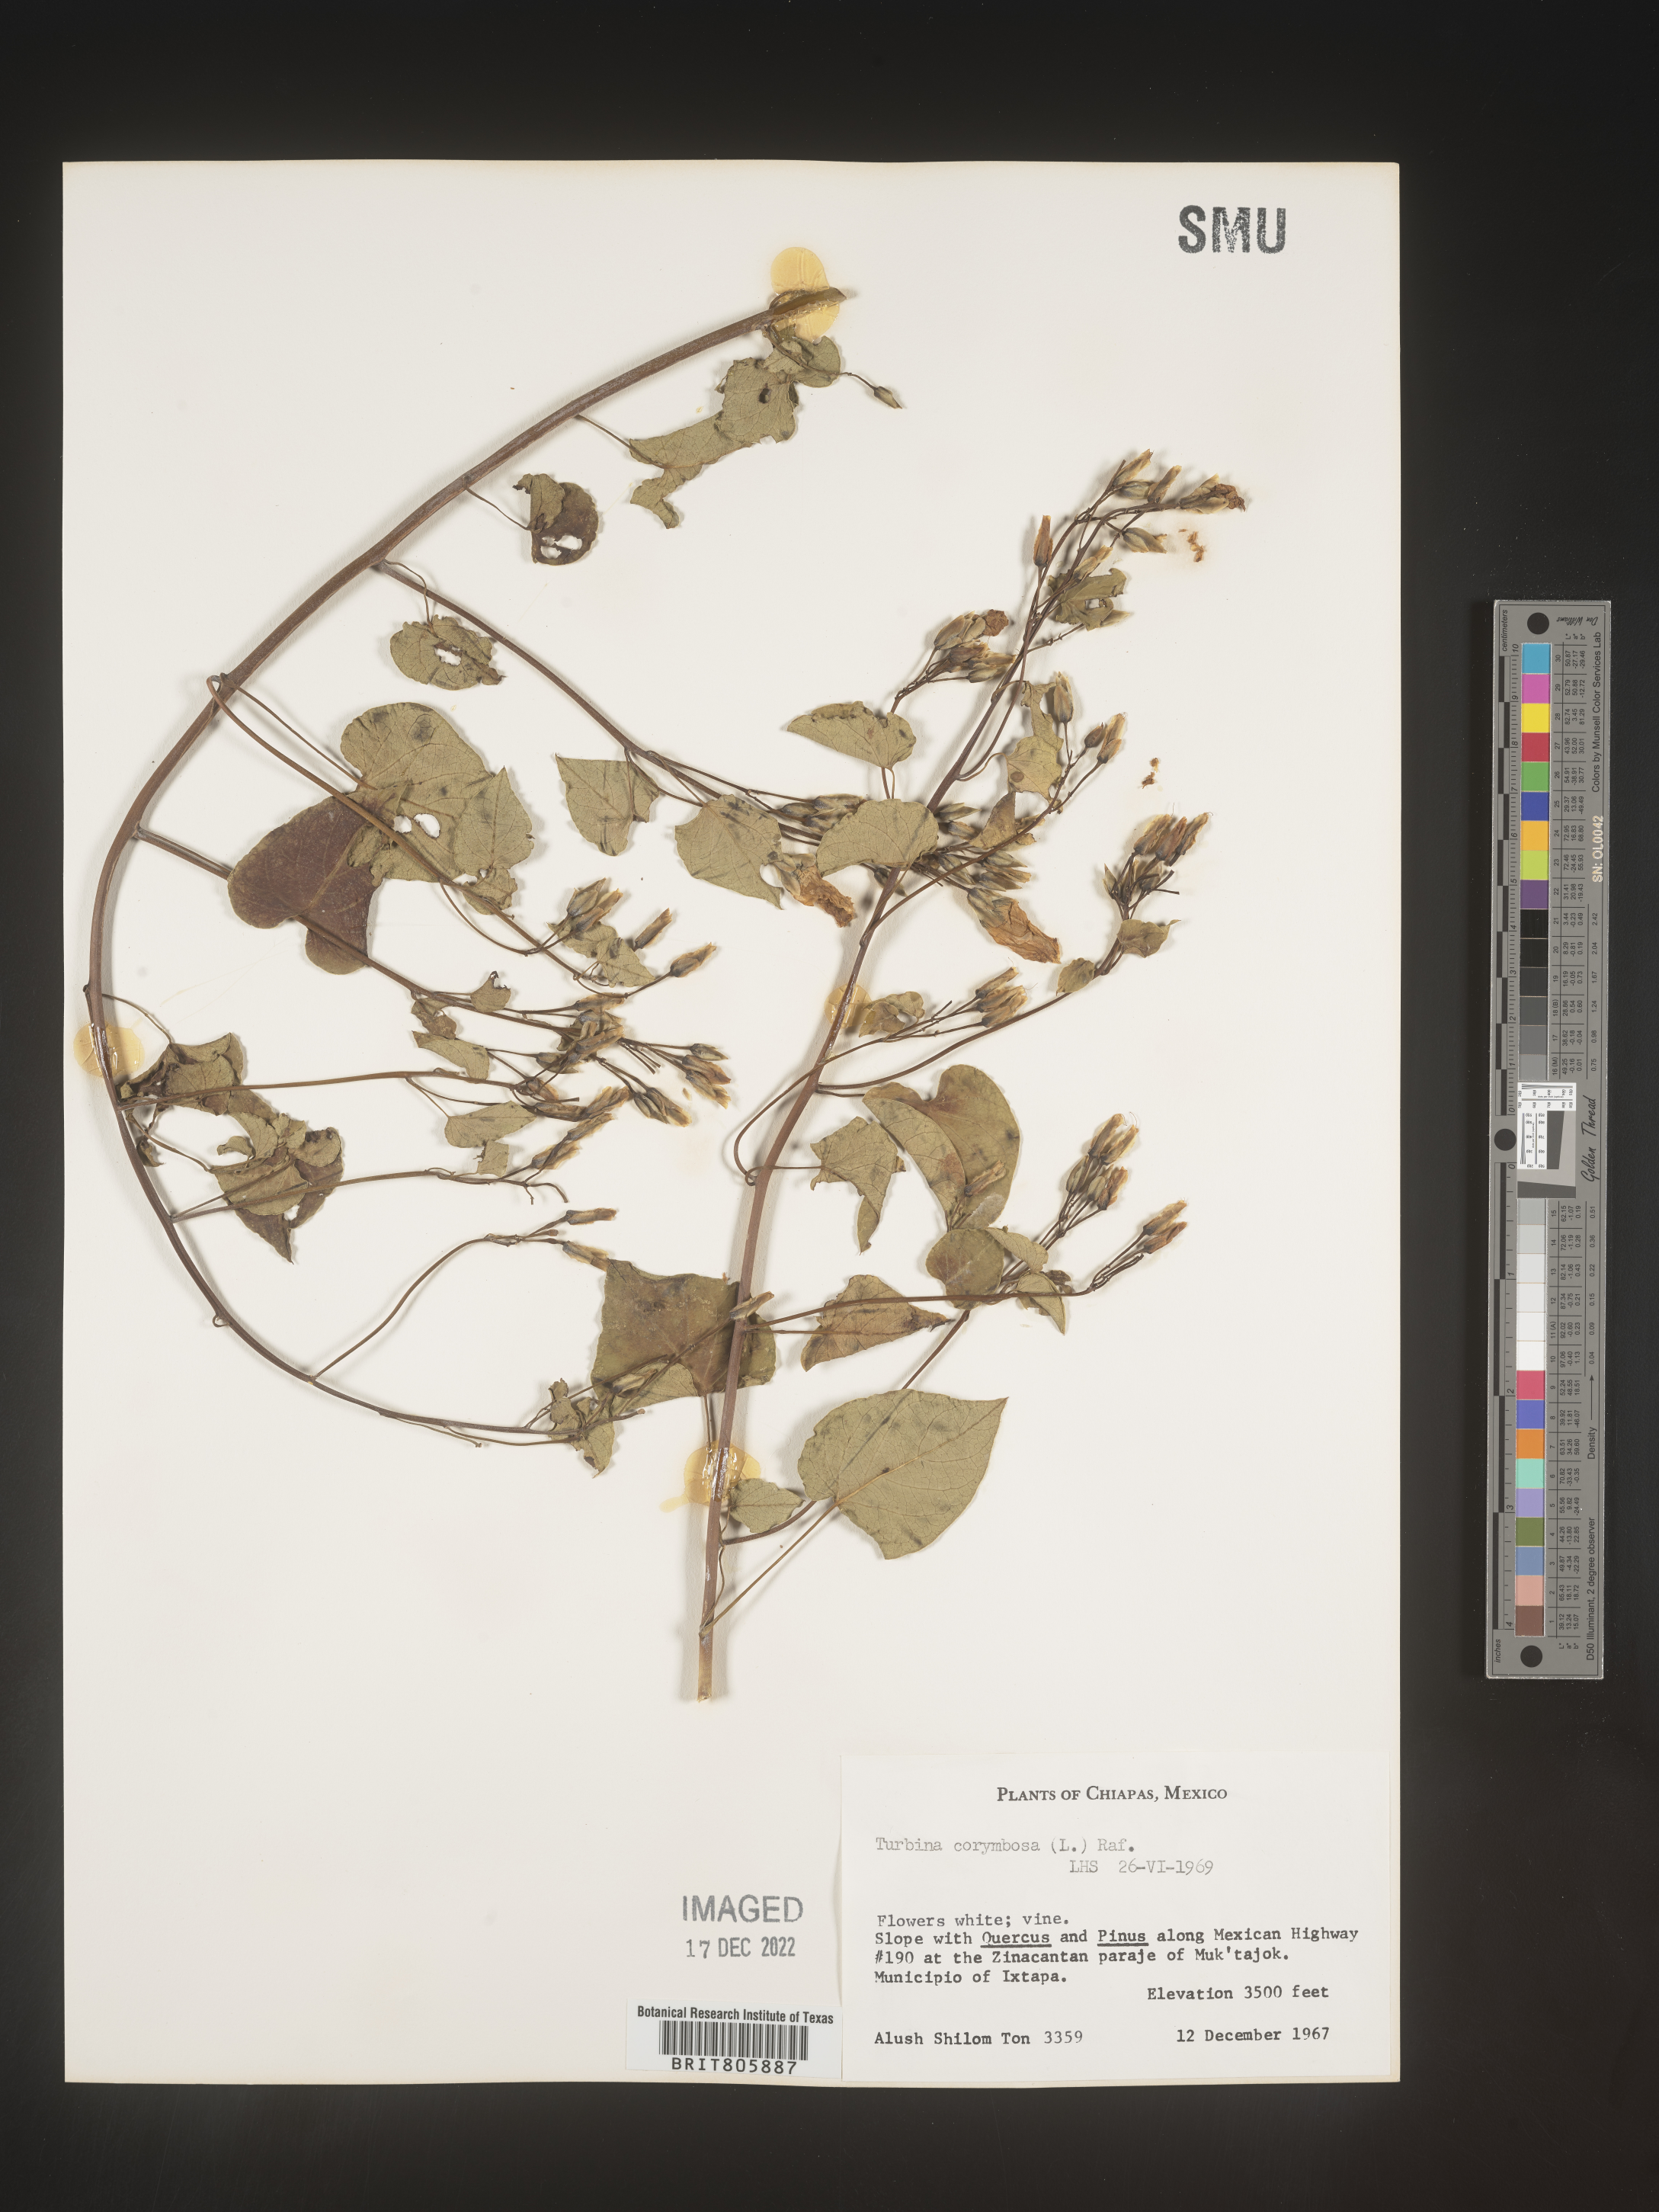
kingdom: Animalia
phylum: Mollusca
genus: Turbina
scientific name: Turbina
